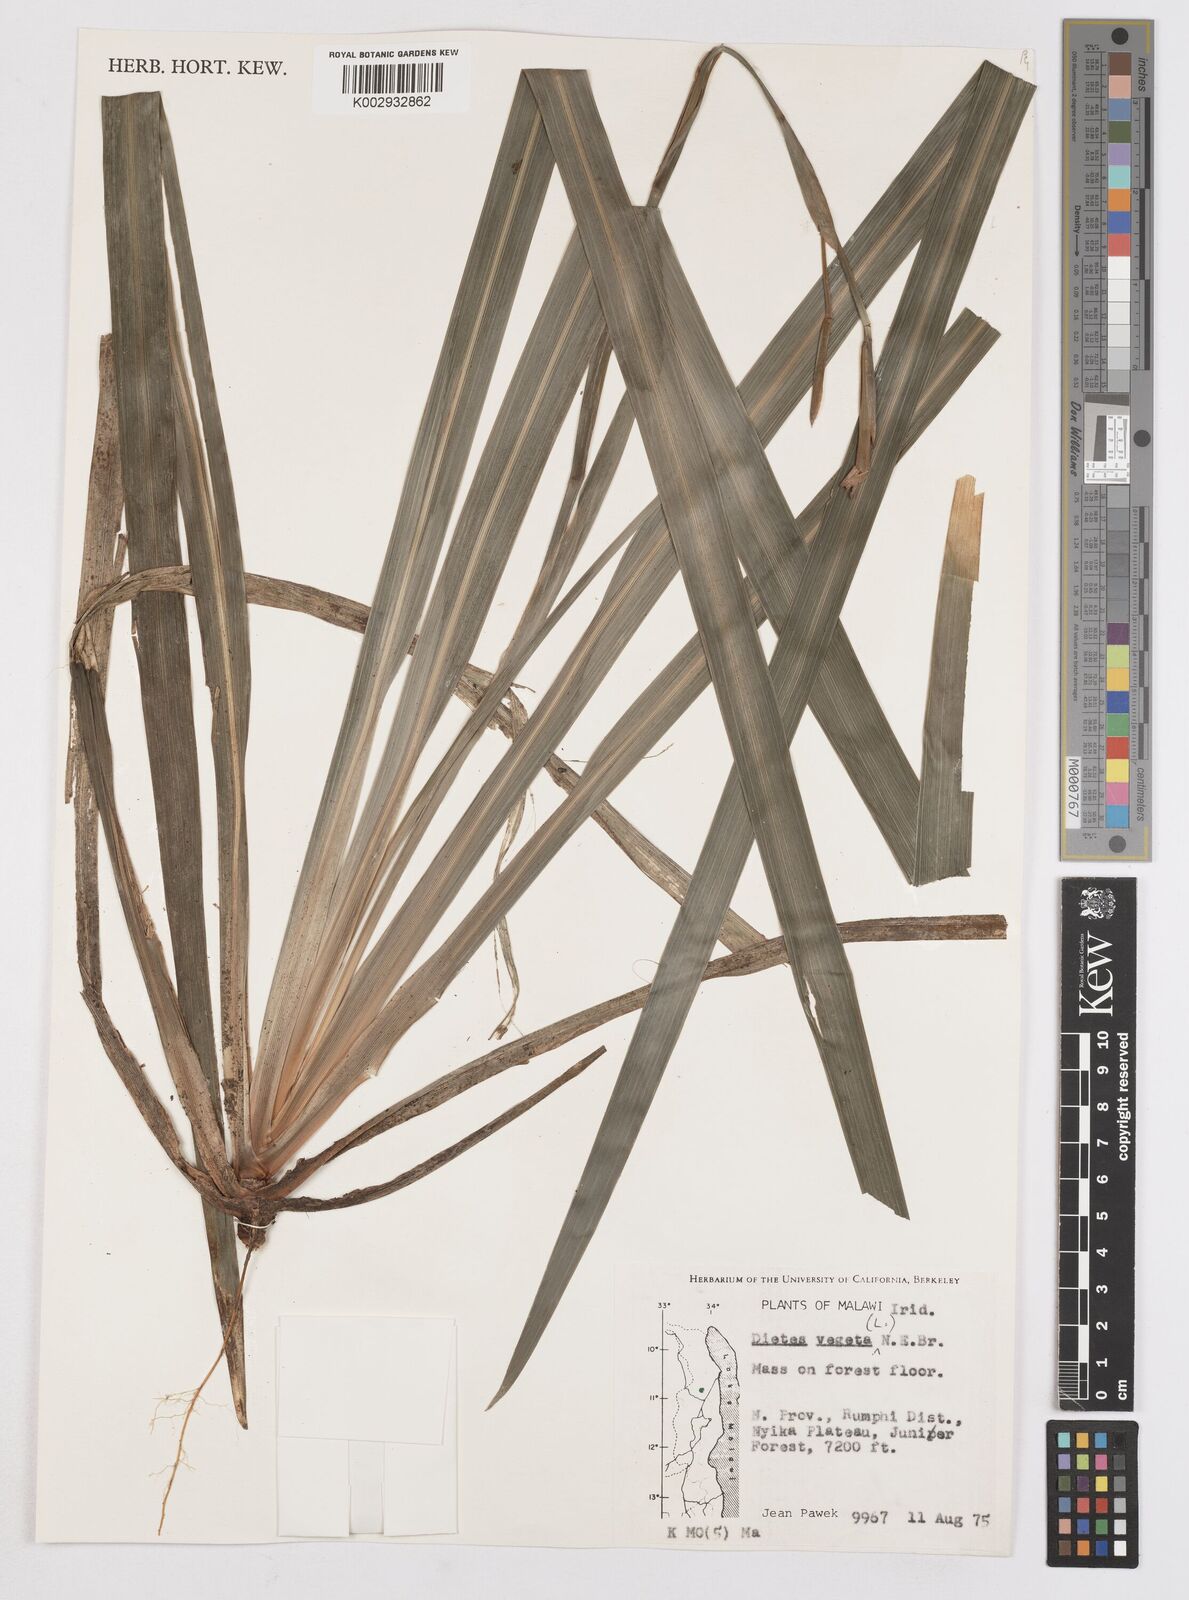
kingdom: Plantae
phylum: Tracheophyta
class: Liliopsida
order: Asparagales
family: Iridaceae
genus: Dietes
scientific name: Dietes iridioides
